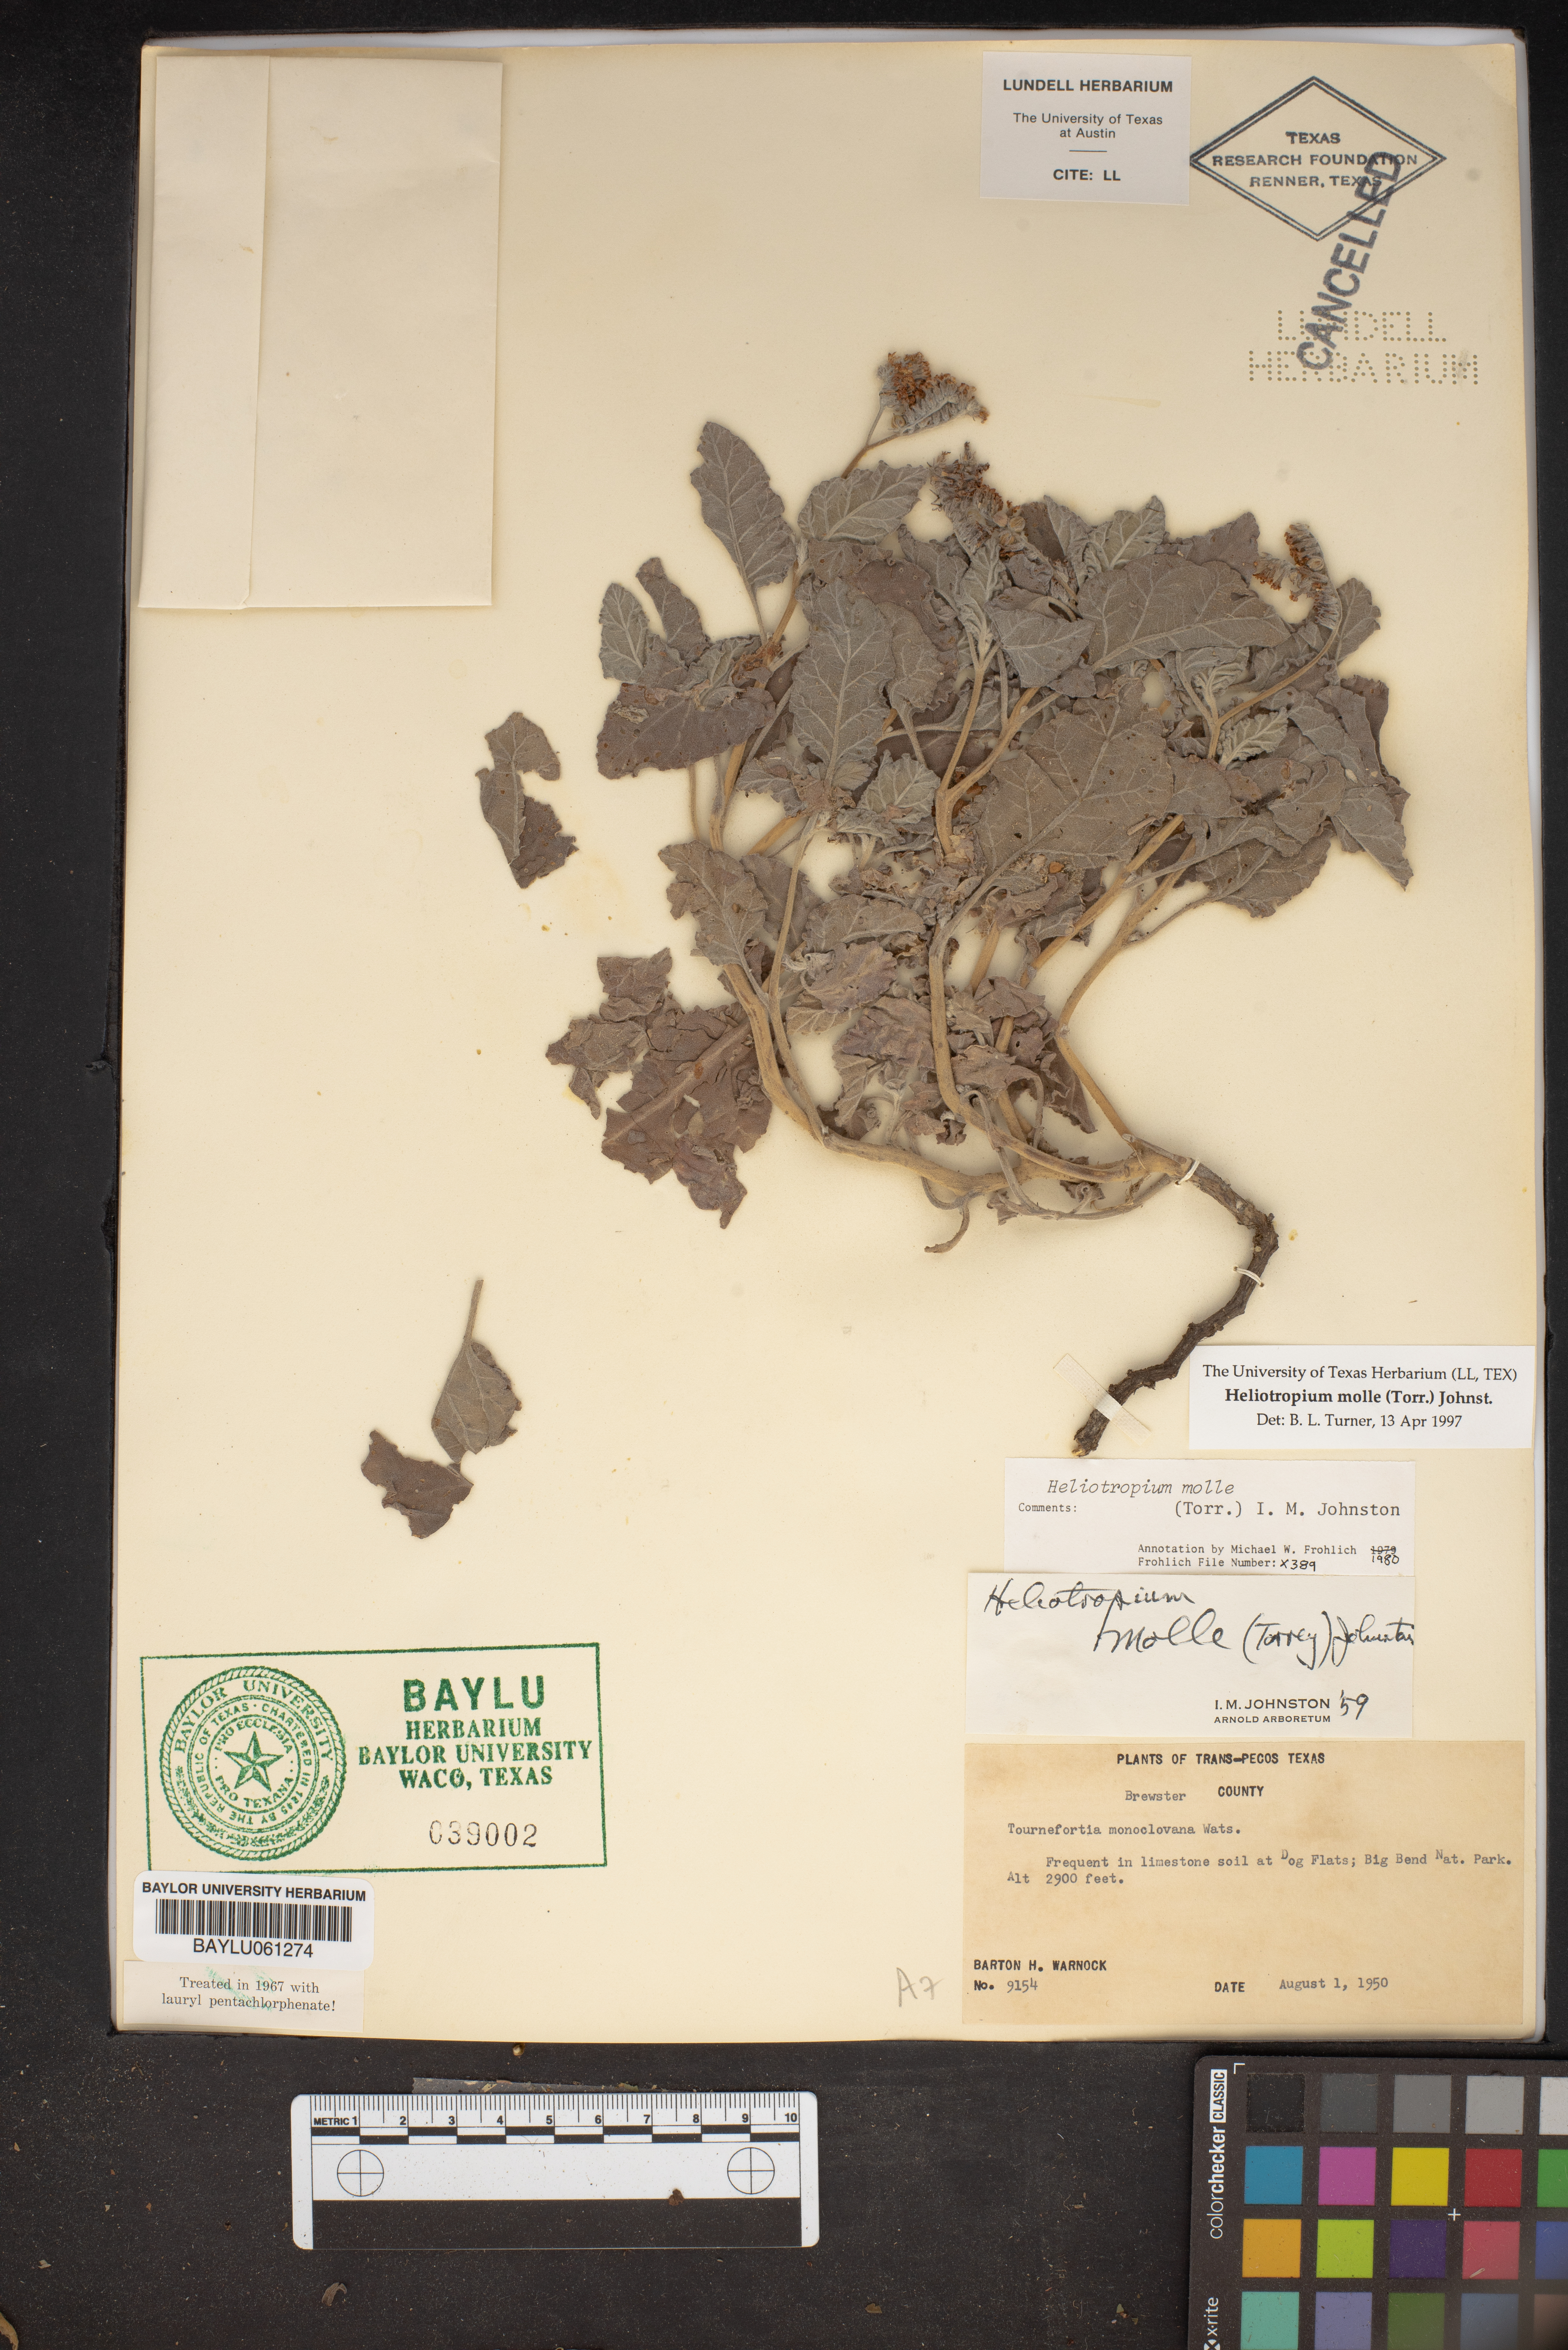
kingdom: Plantae
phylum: Tracheophyta
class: Magnoliopsida
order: Boraginales
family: Heliotropiaceae
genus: Heliotropium
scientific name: Heliotropium molle
